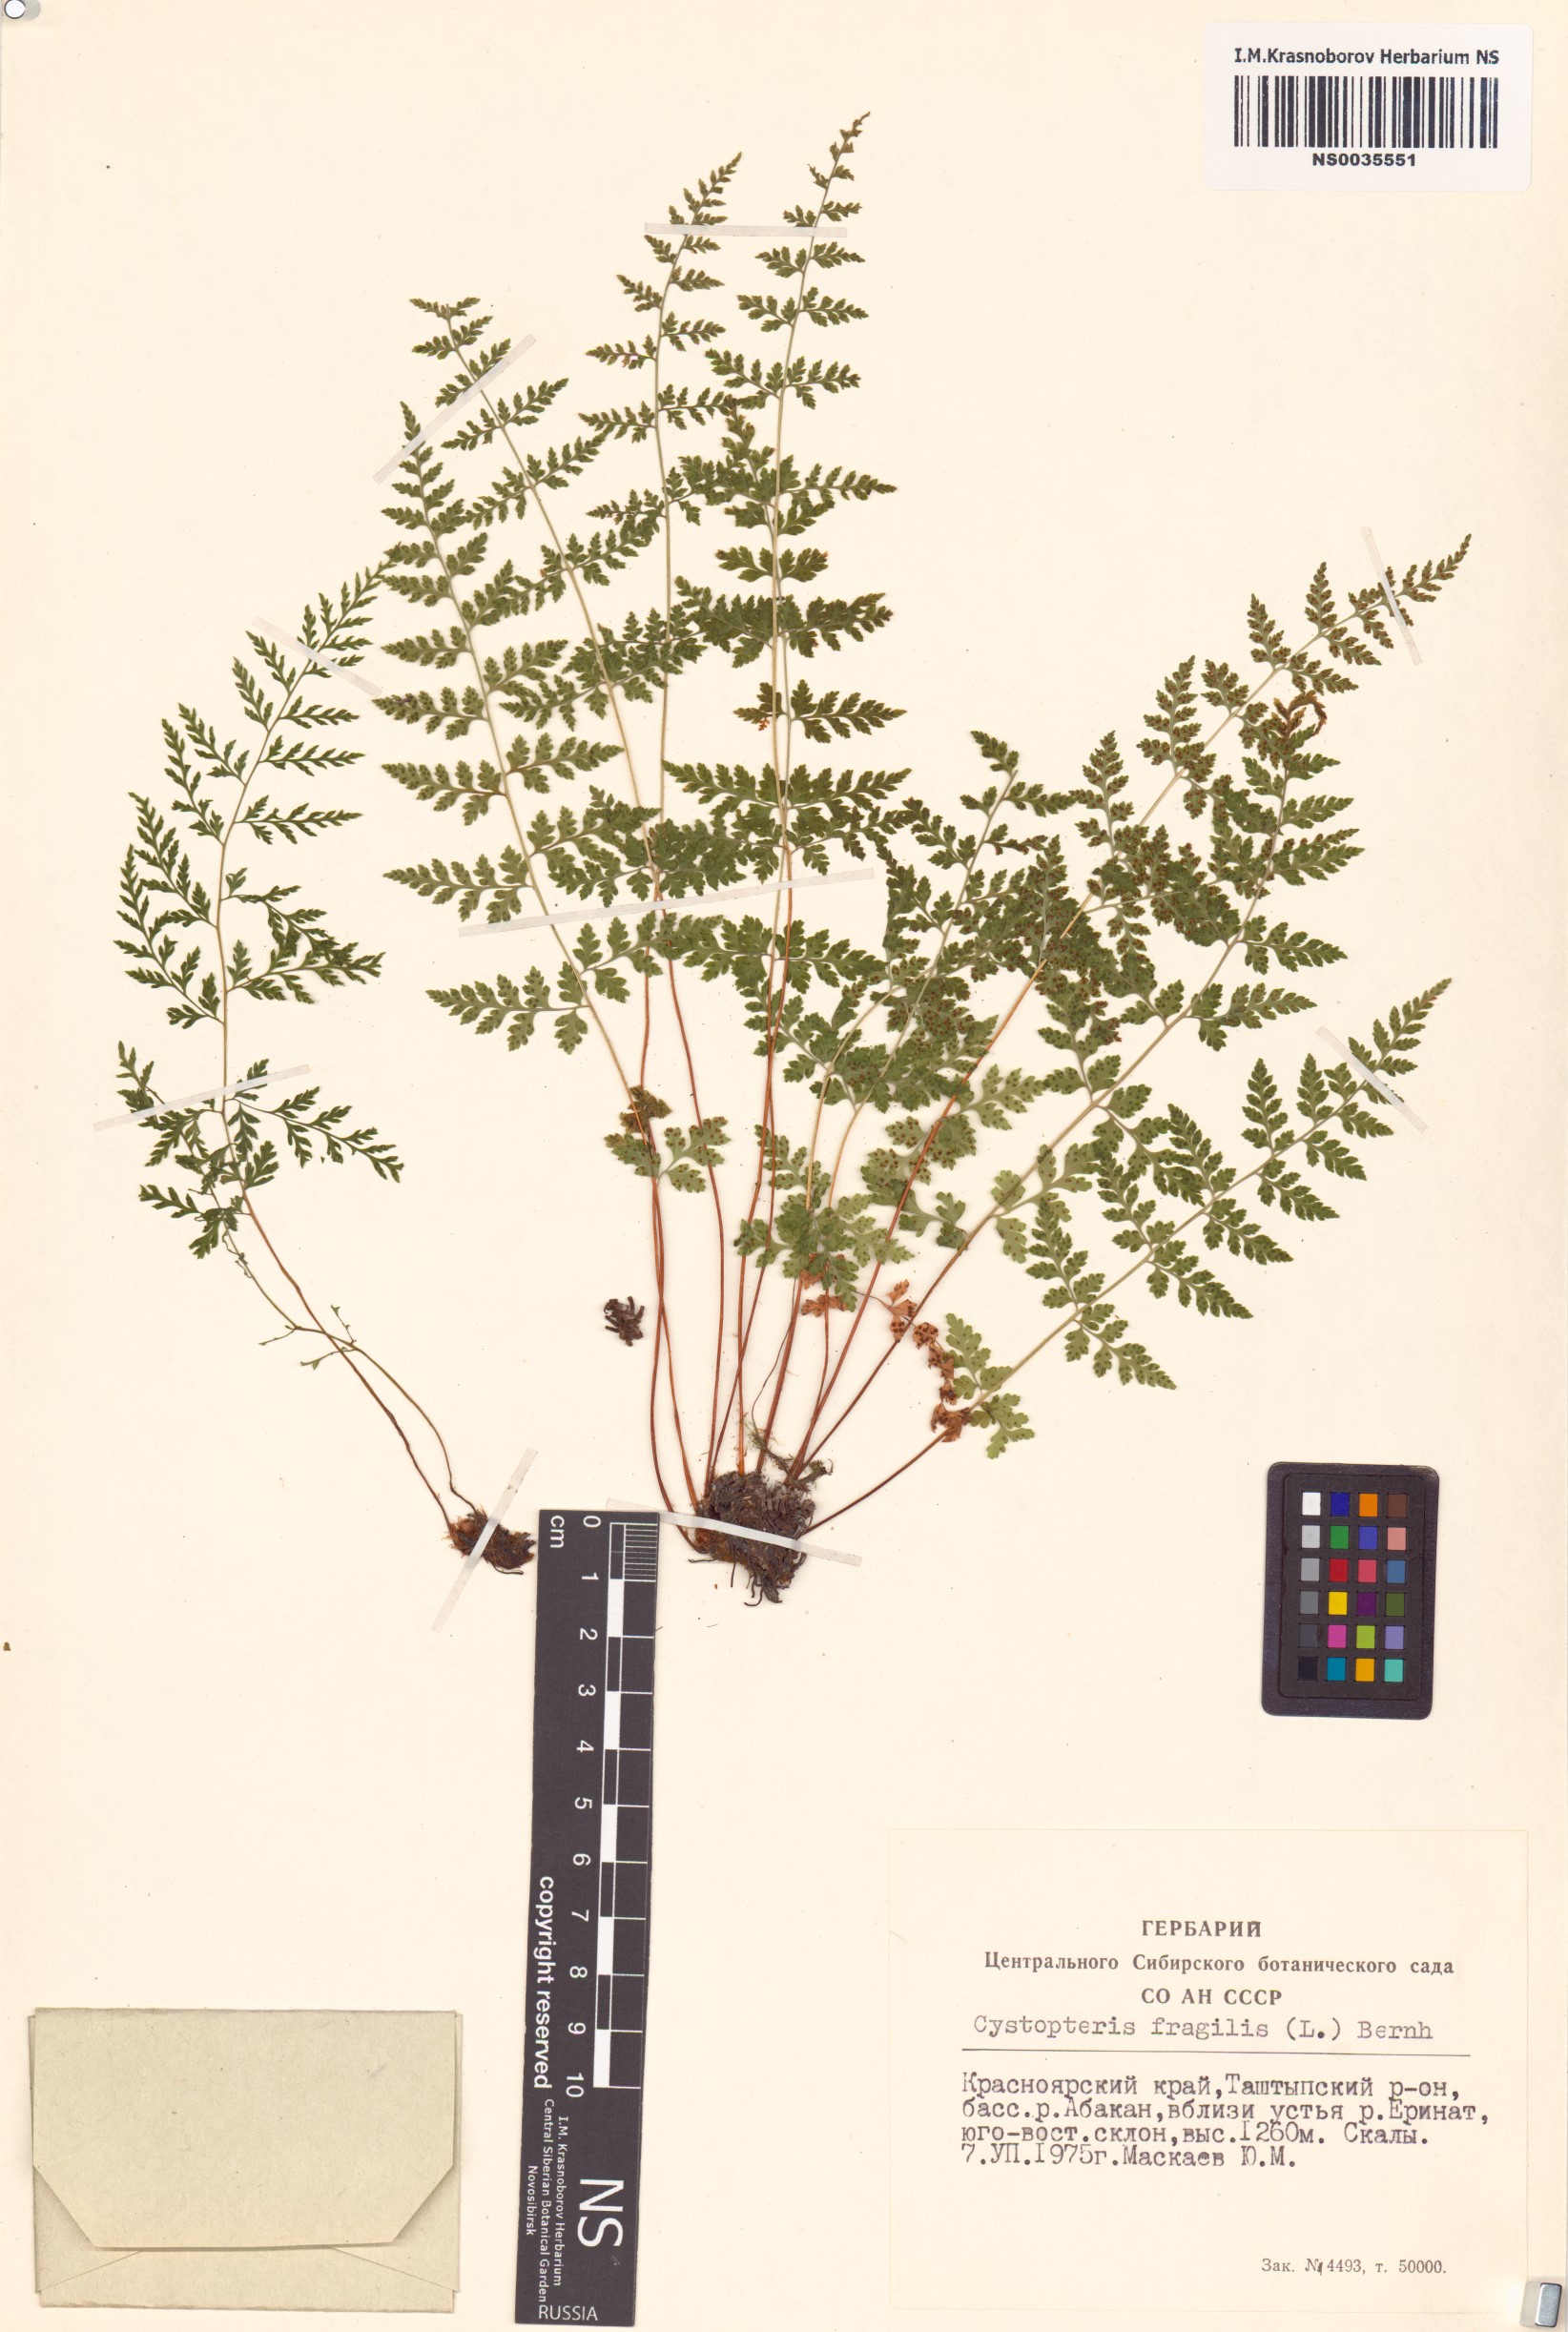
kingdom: Plantae
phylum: Tracheophyta
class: Polypodiopsida
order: Polypodiales
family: Cystopteridaceae
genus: Cystopteris
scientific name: Cystopteris fragilis
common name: Brittle bladder fern
